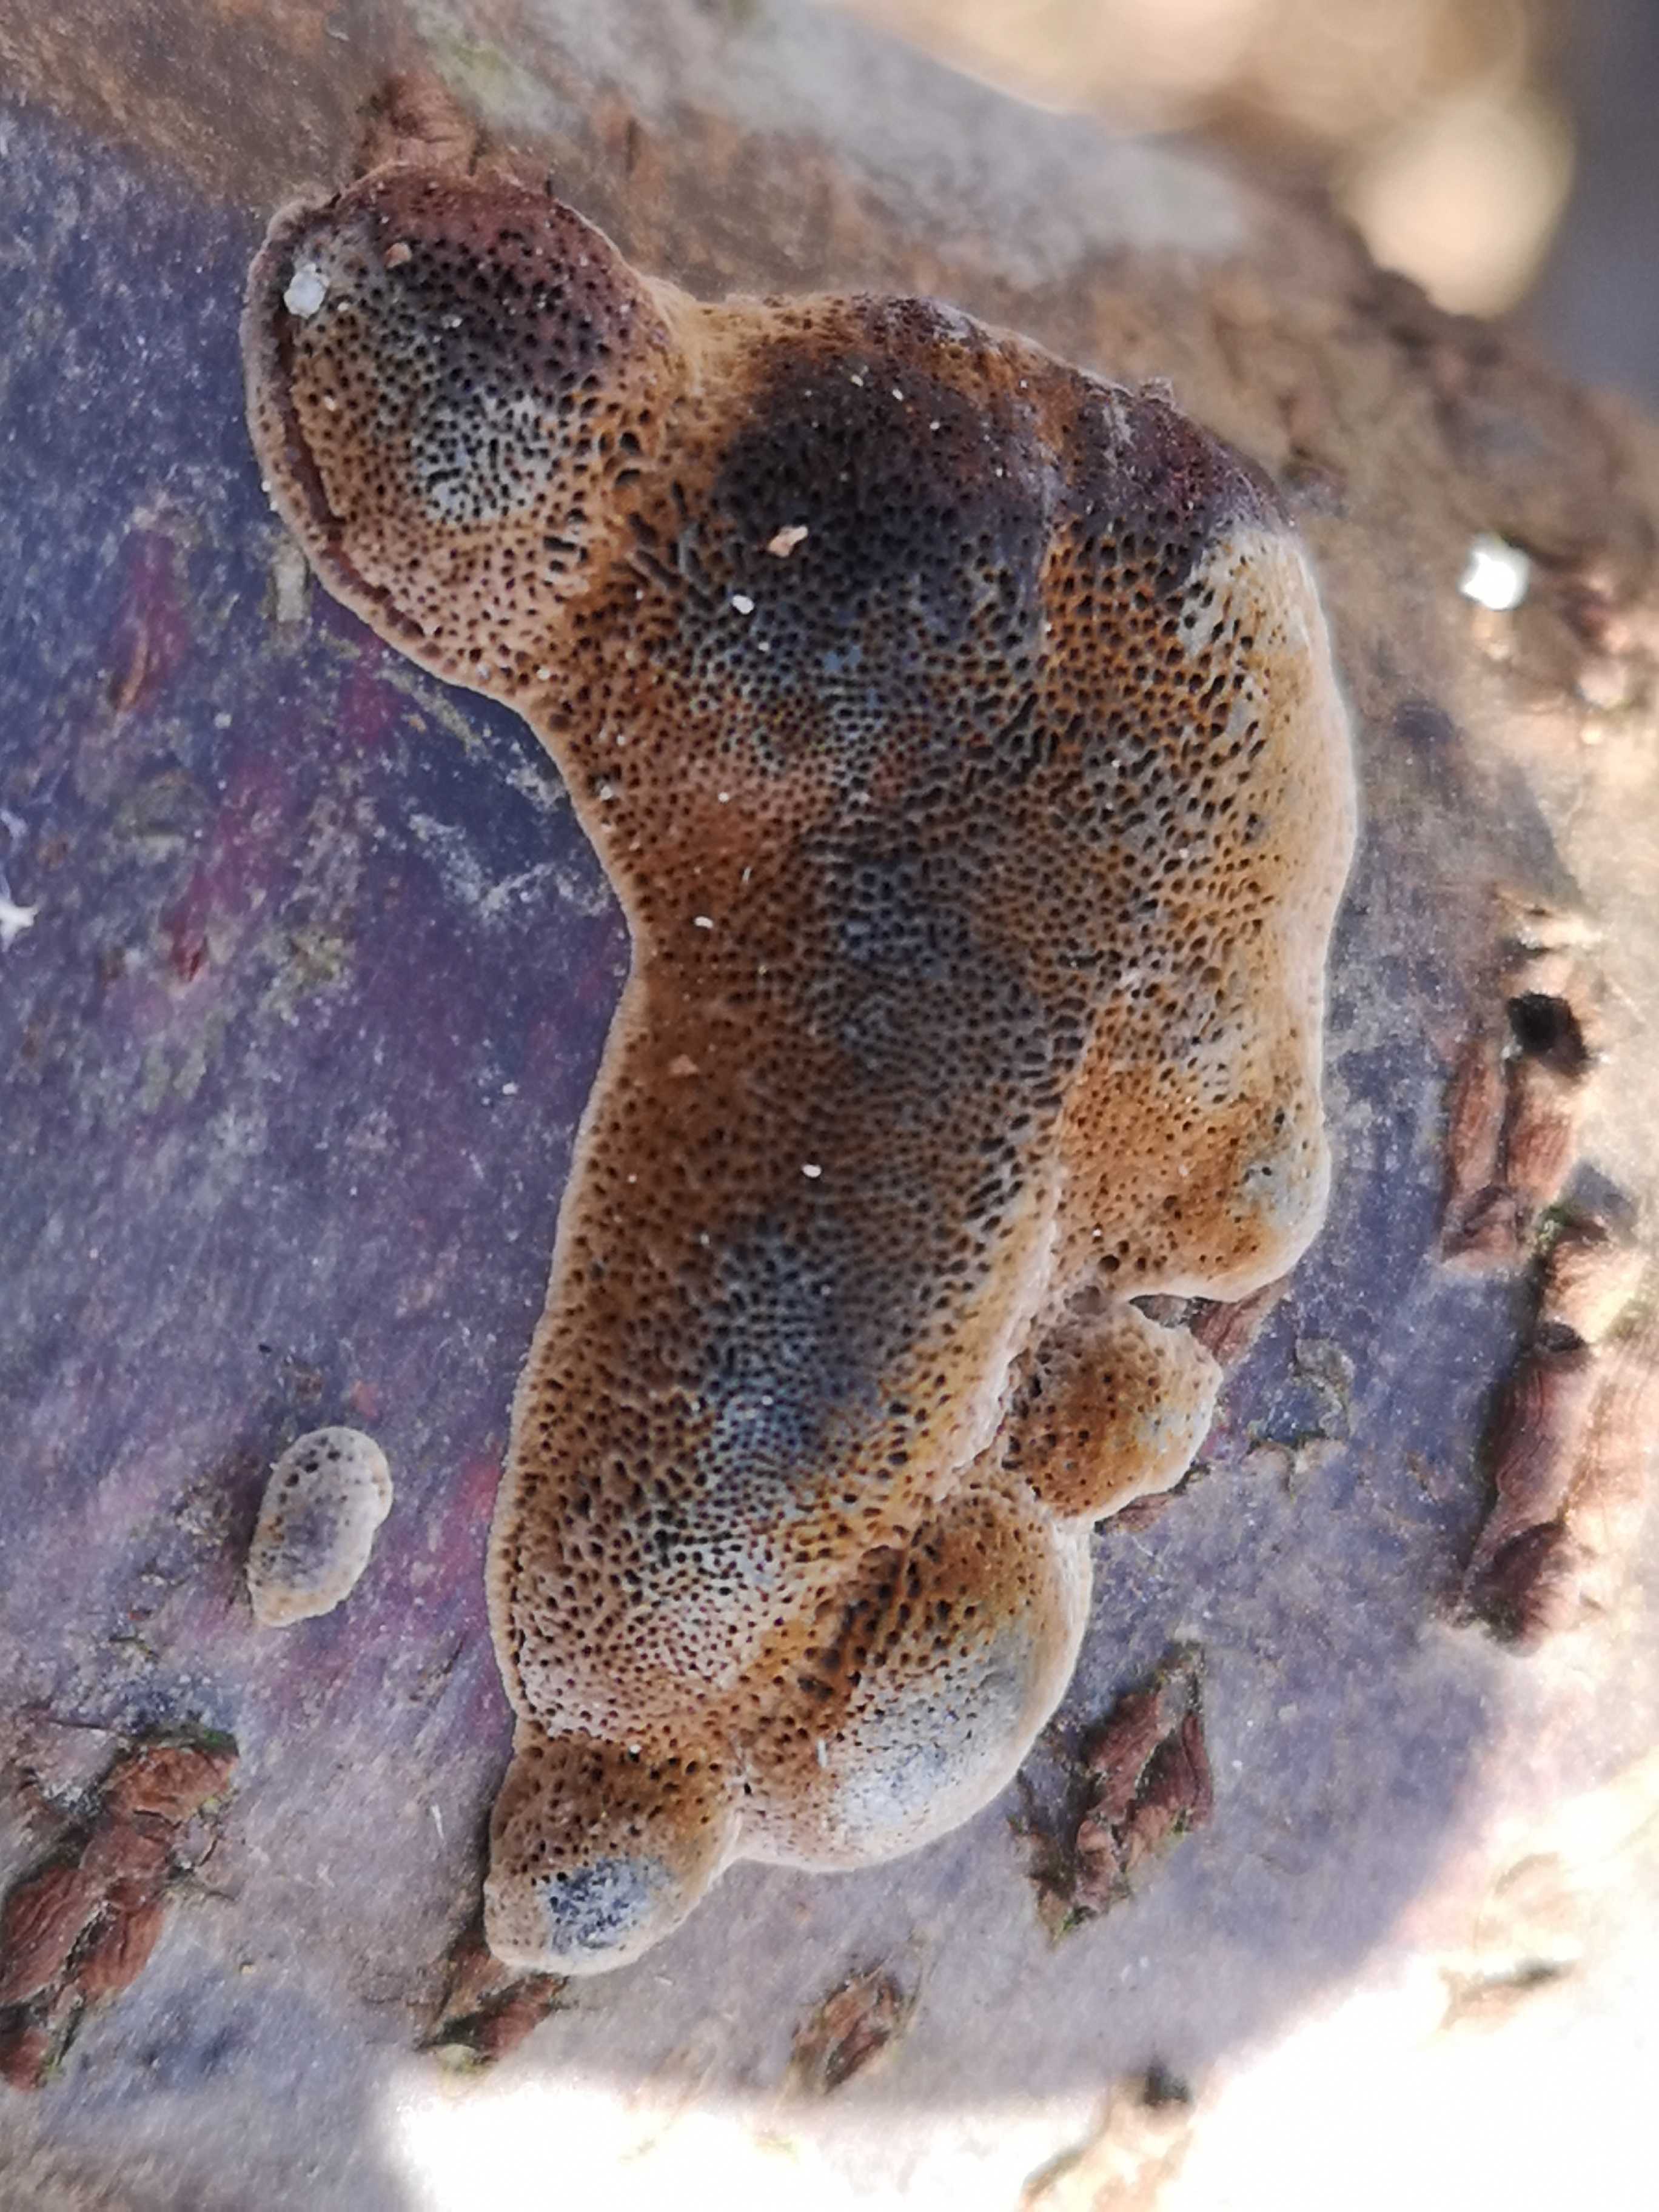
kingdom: Fungi
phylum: Basidiomycota
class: Agaricomycetes
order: Polyporales
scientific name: Polyporales
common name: poresvampordenen
